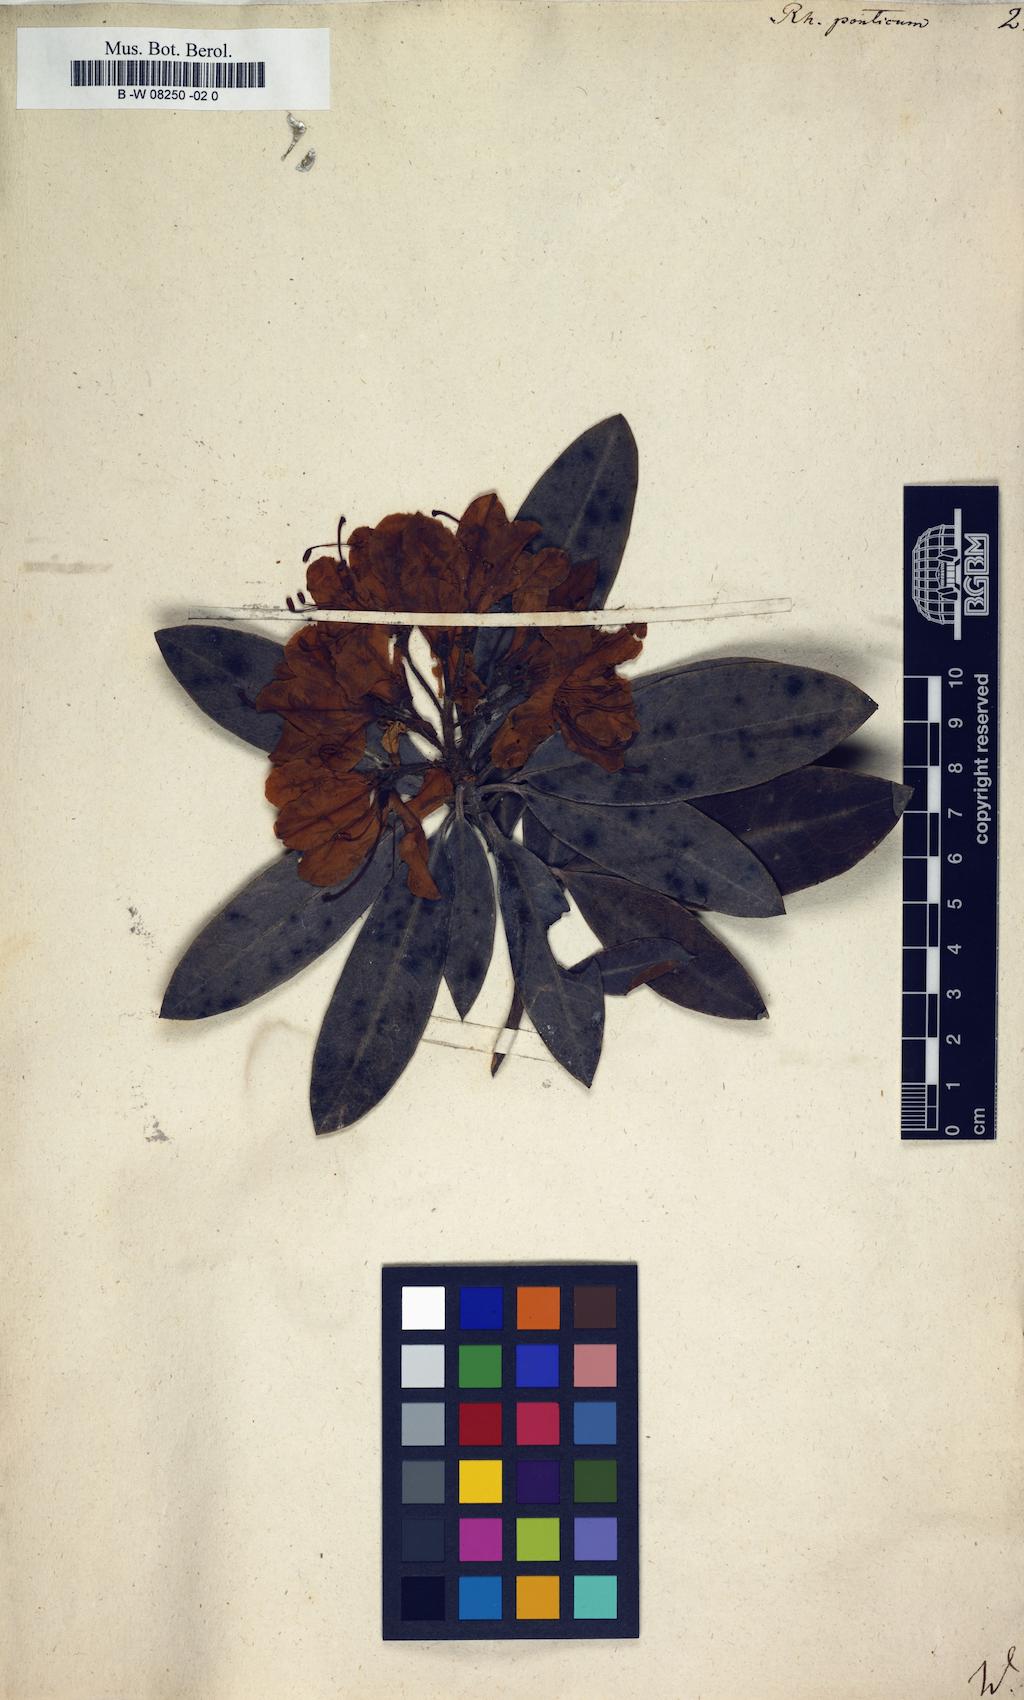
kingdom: Plantae
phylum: Tracheophyta
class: Magnoliopsida
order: Ericales
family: Ericaceae
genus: Rhododendron
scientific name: Rhododendron ponticum
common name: Rhododendron
